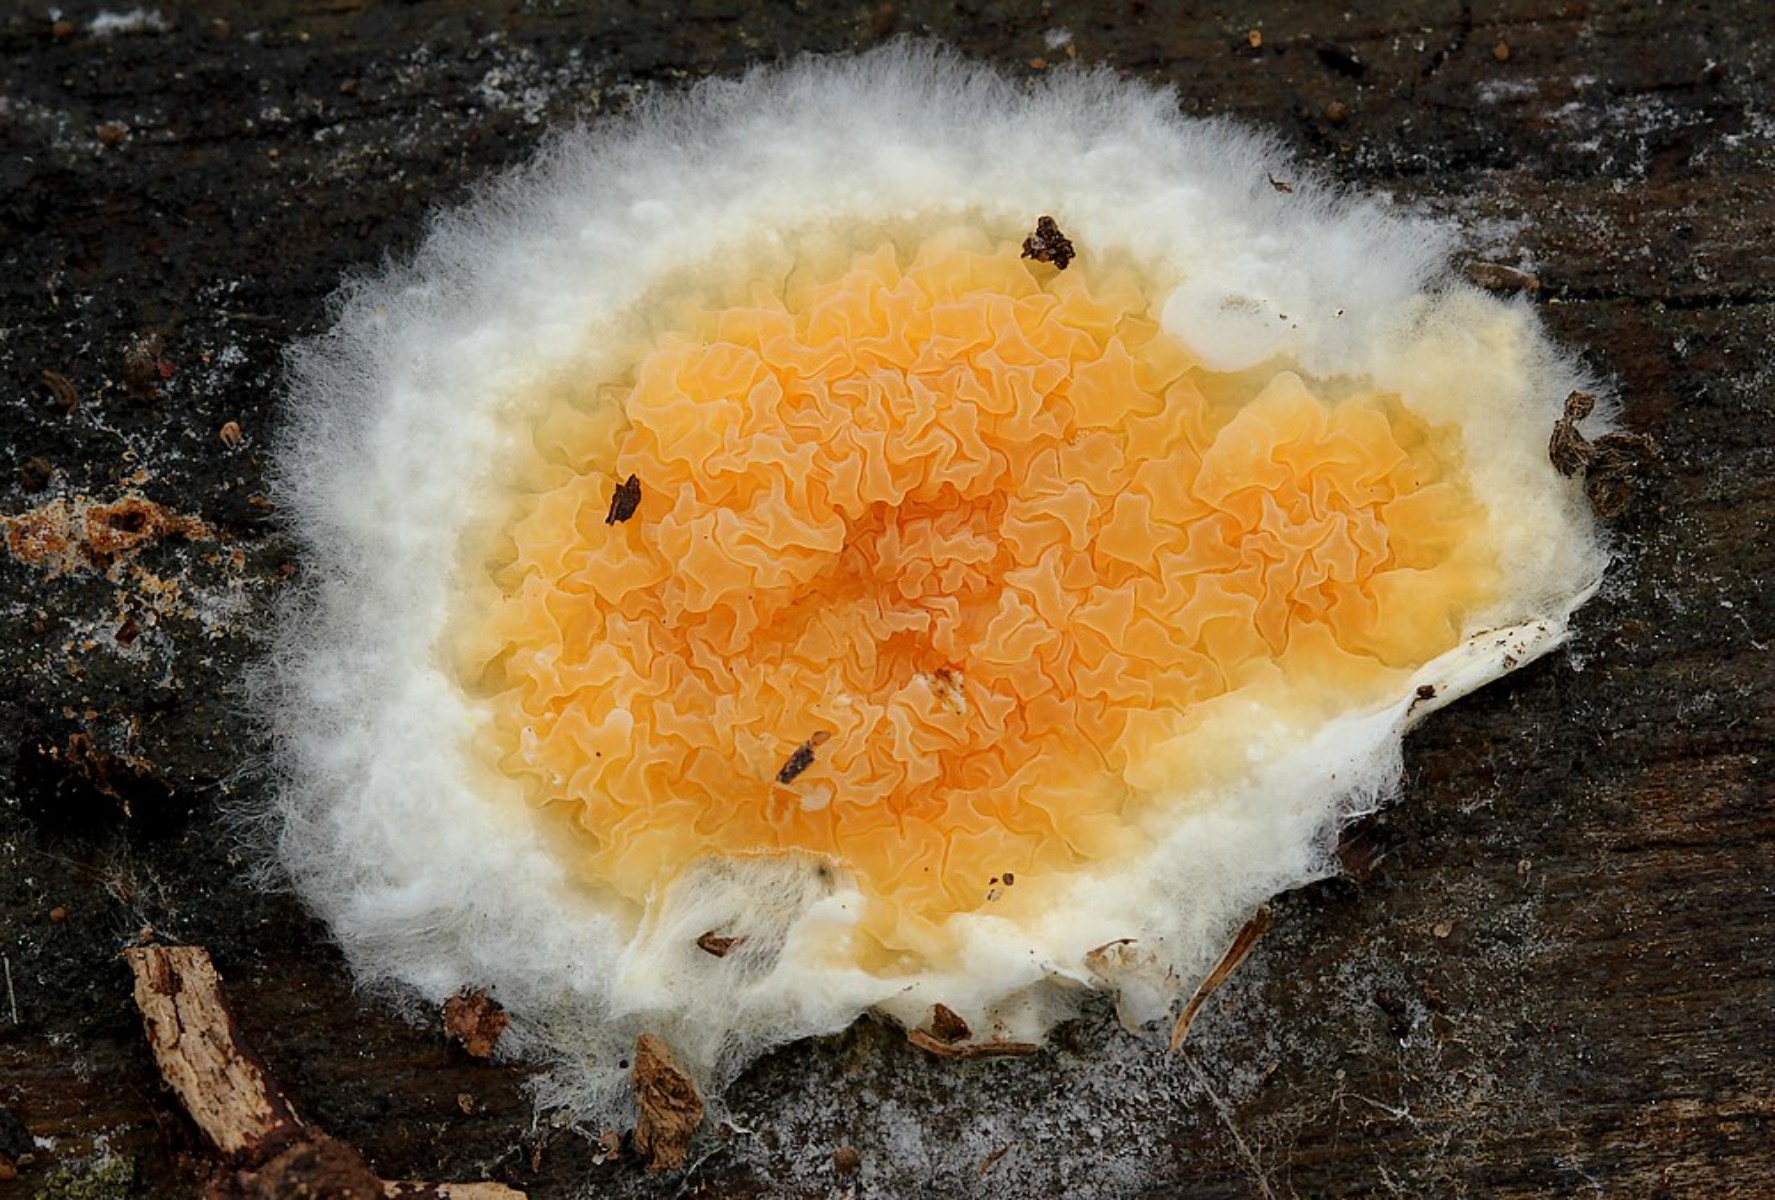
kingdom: Fungi
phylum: Basidiomycota
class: Agaricomycetes
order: Boletales
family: Hygrophoropsidaceae
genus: Leucogyrophana
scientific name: Leucogyrophana mollusca
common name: blød hussvamp
